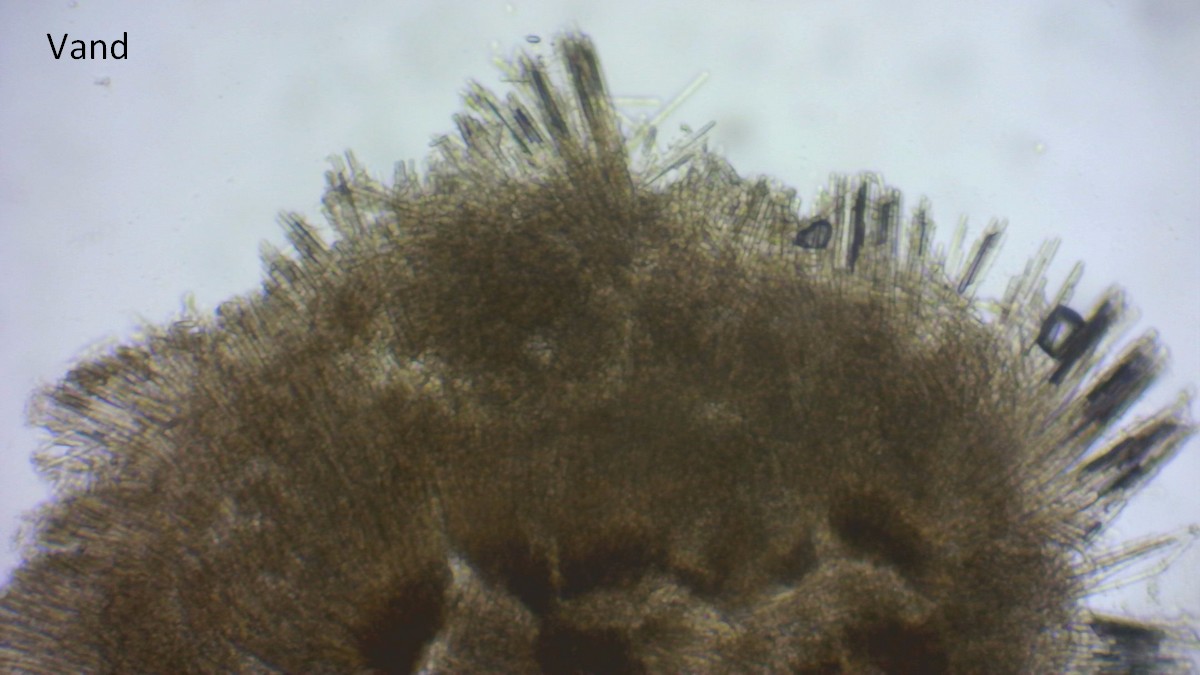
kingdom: Fungi
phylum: Ascomycota
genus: Septotrullula
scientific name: Septotrullula bacilligera
